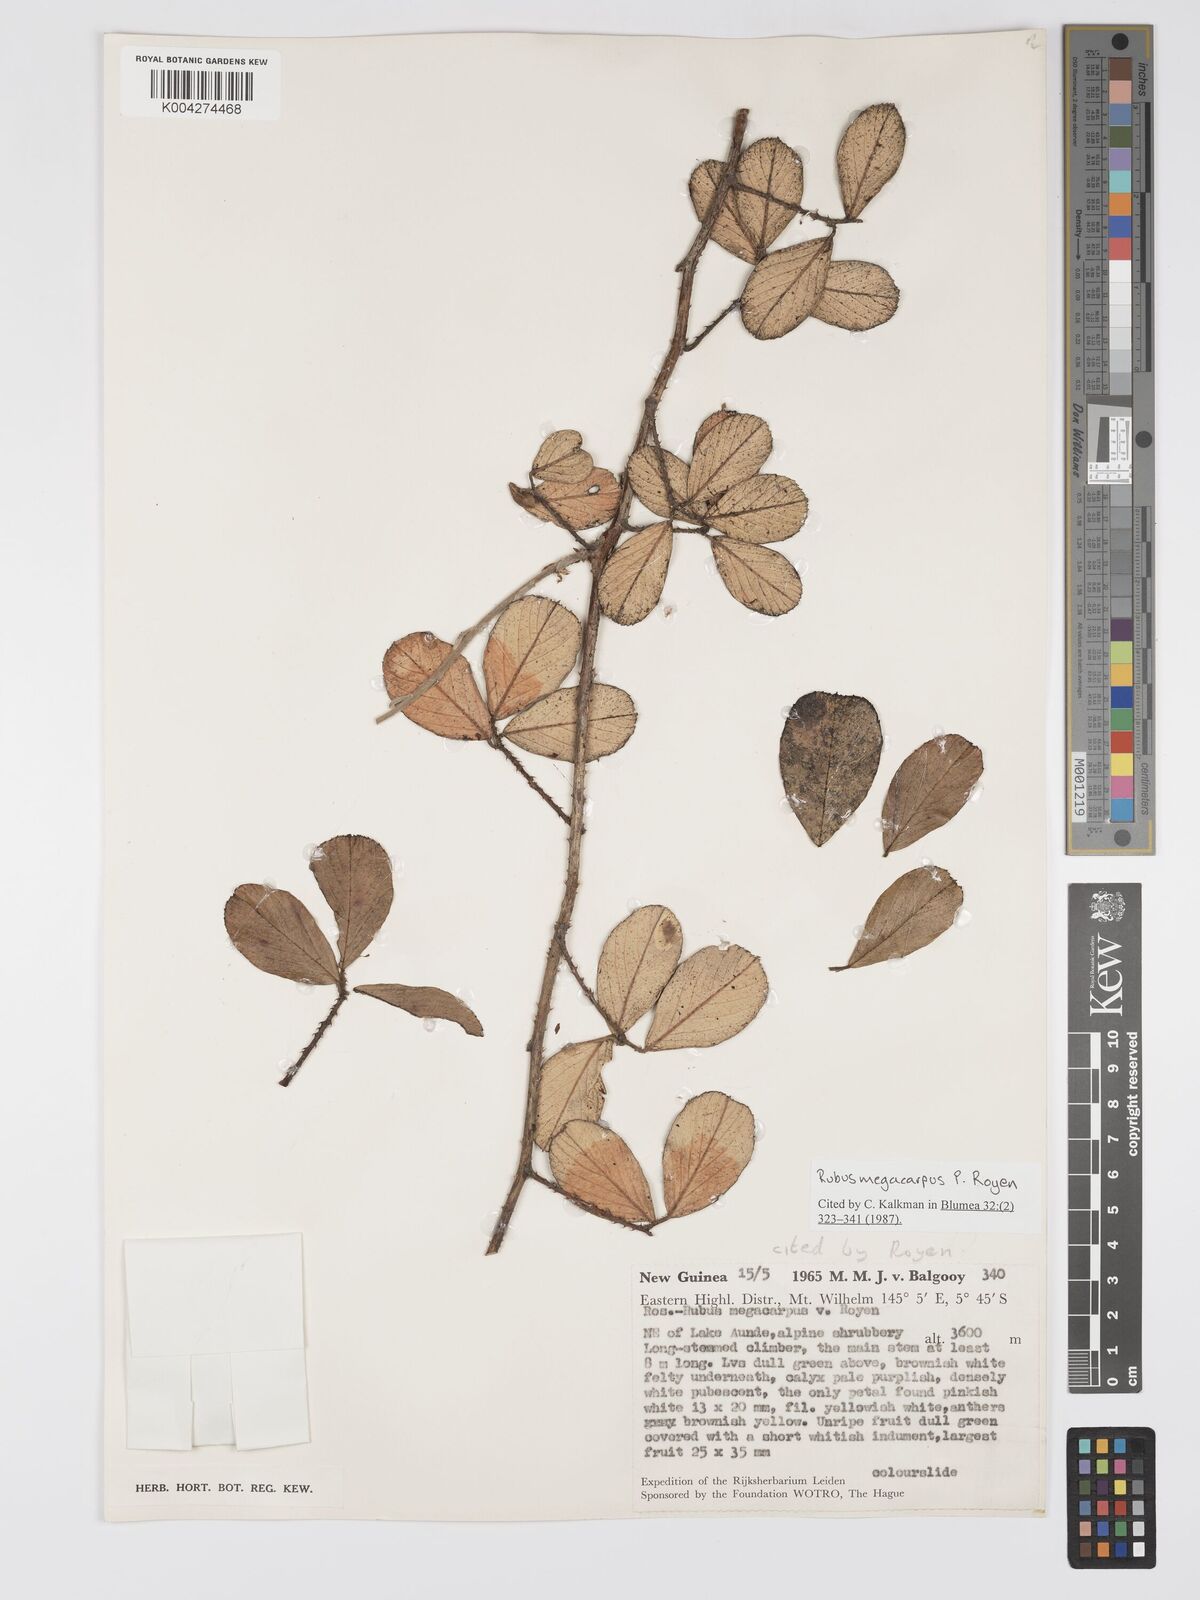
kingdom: Plantae
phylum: Tracheophyta
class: Magnoliopsida
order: Rosales
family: Rosaceae
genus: Rubus
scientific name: Rubus megacarpus
